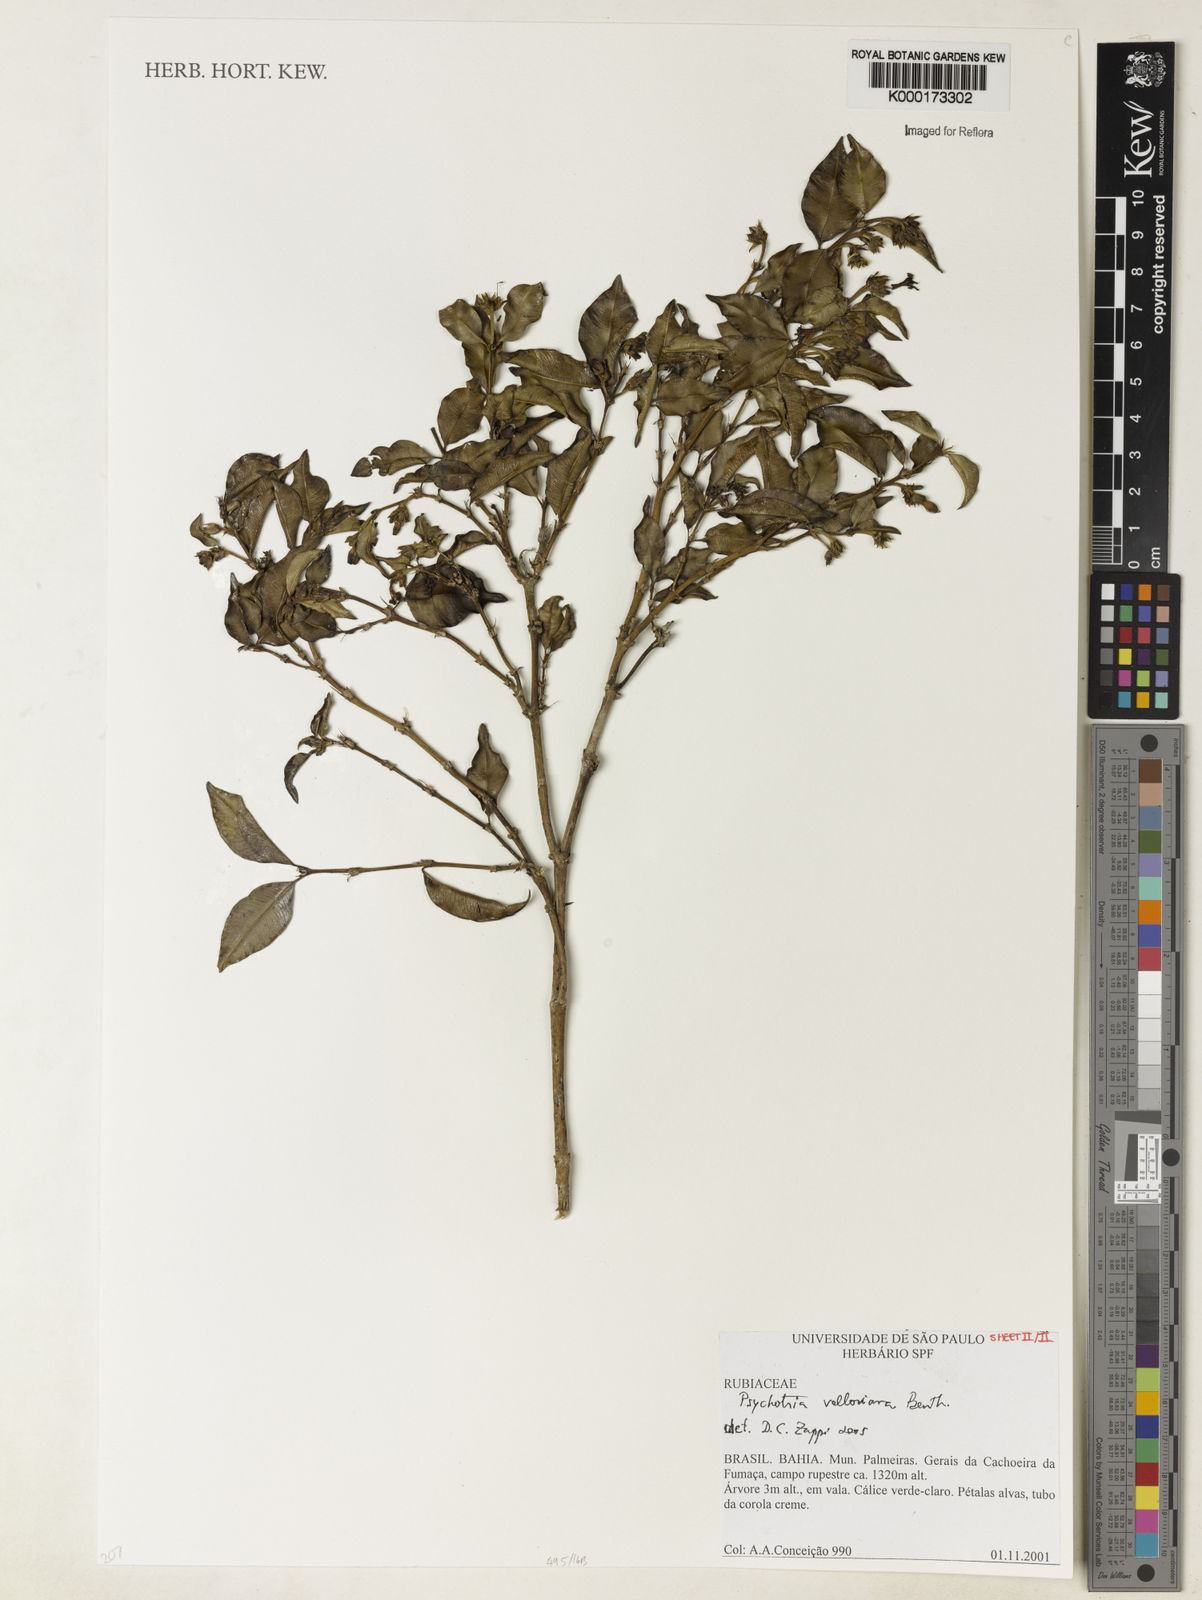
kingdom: Plantae
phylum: Tracheophyta
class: Magnoliopsida
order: Gentianales
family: Rubiaceae
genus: Palicourea
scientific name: Palicourea sessilis
